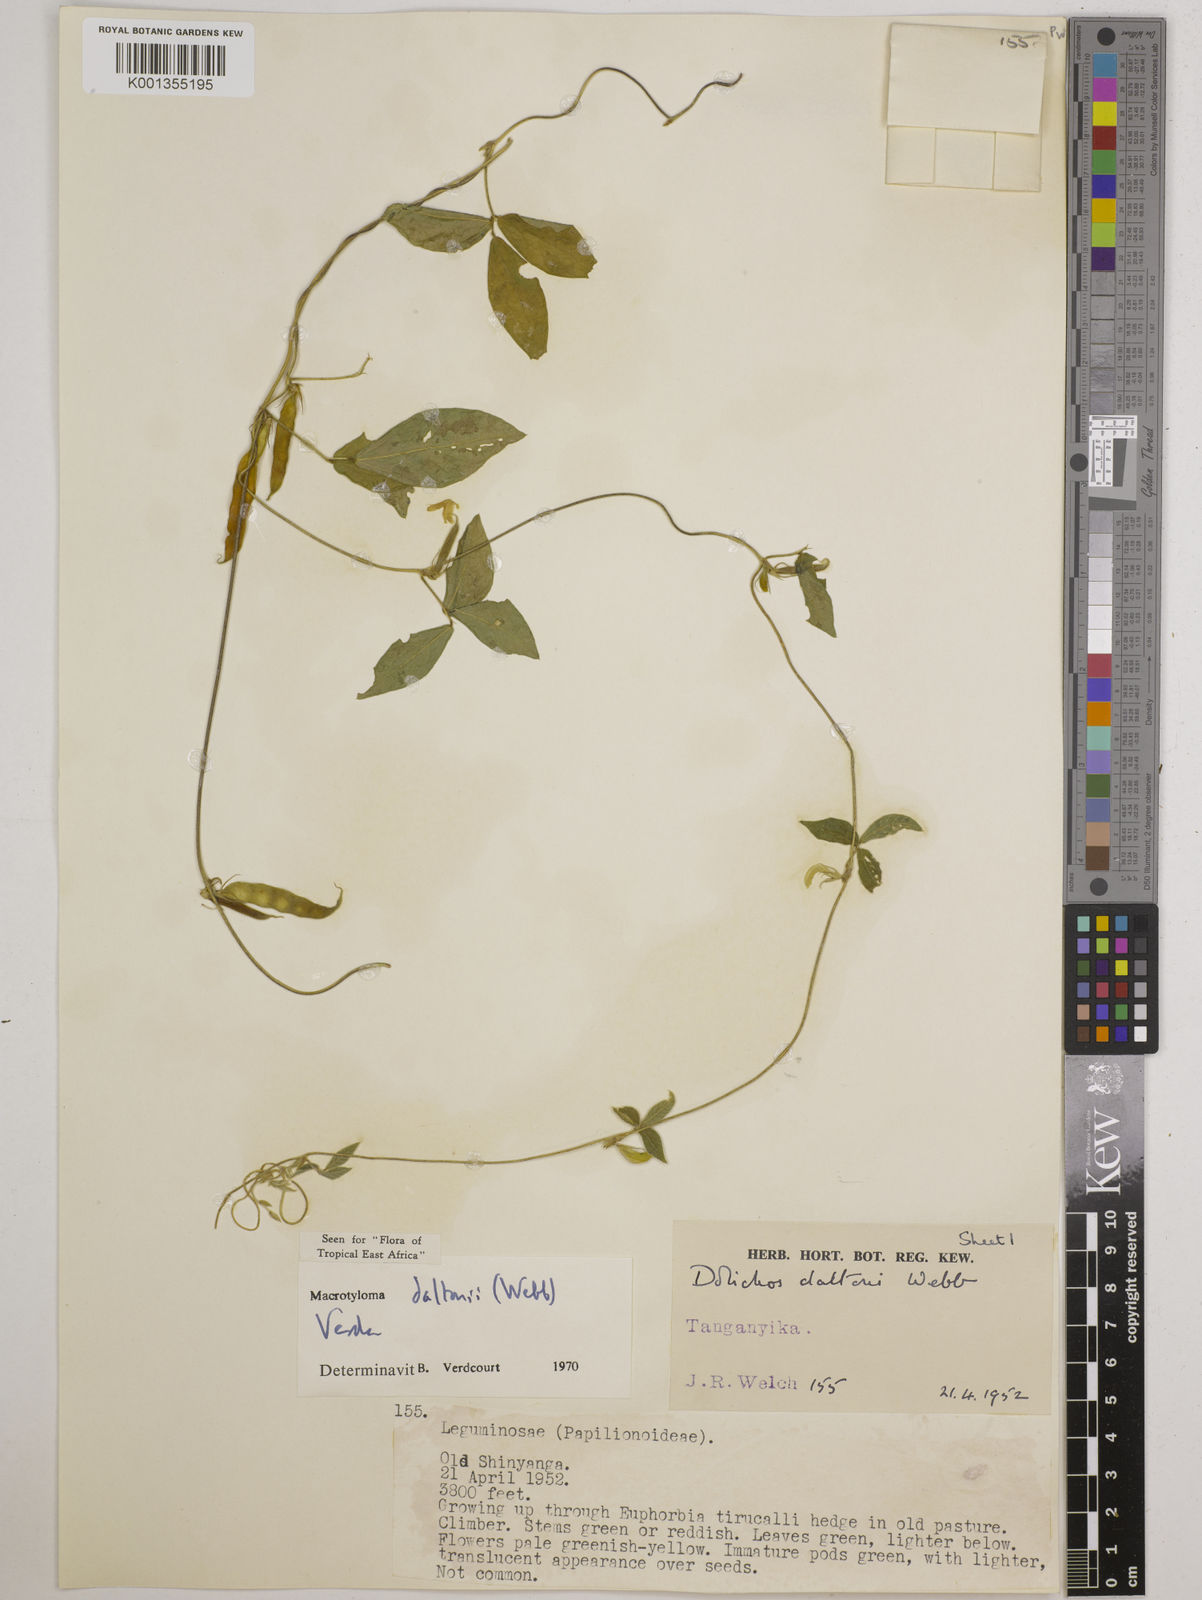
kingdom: Plantae
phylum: Tracheophyta
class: Magnoliopsida
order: Fabales
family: Fabaceae
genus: Macrotyloma
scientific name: Macrotyloma daltonii
